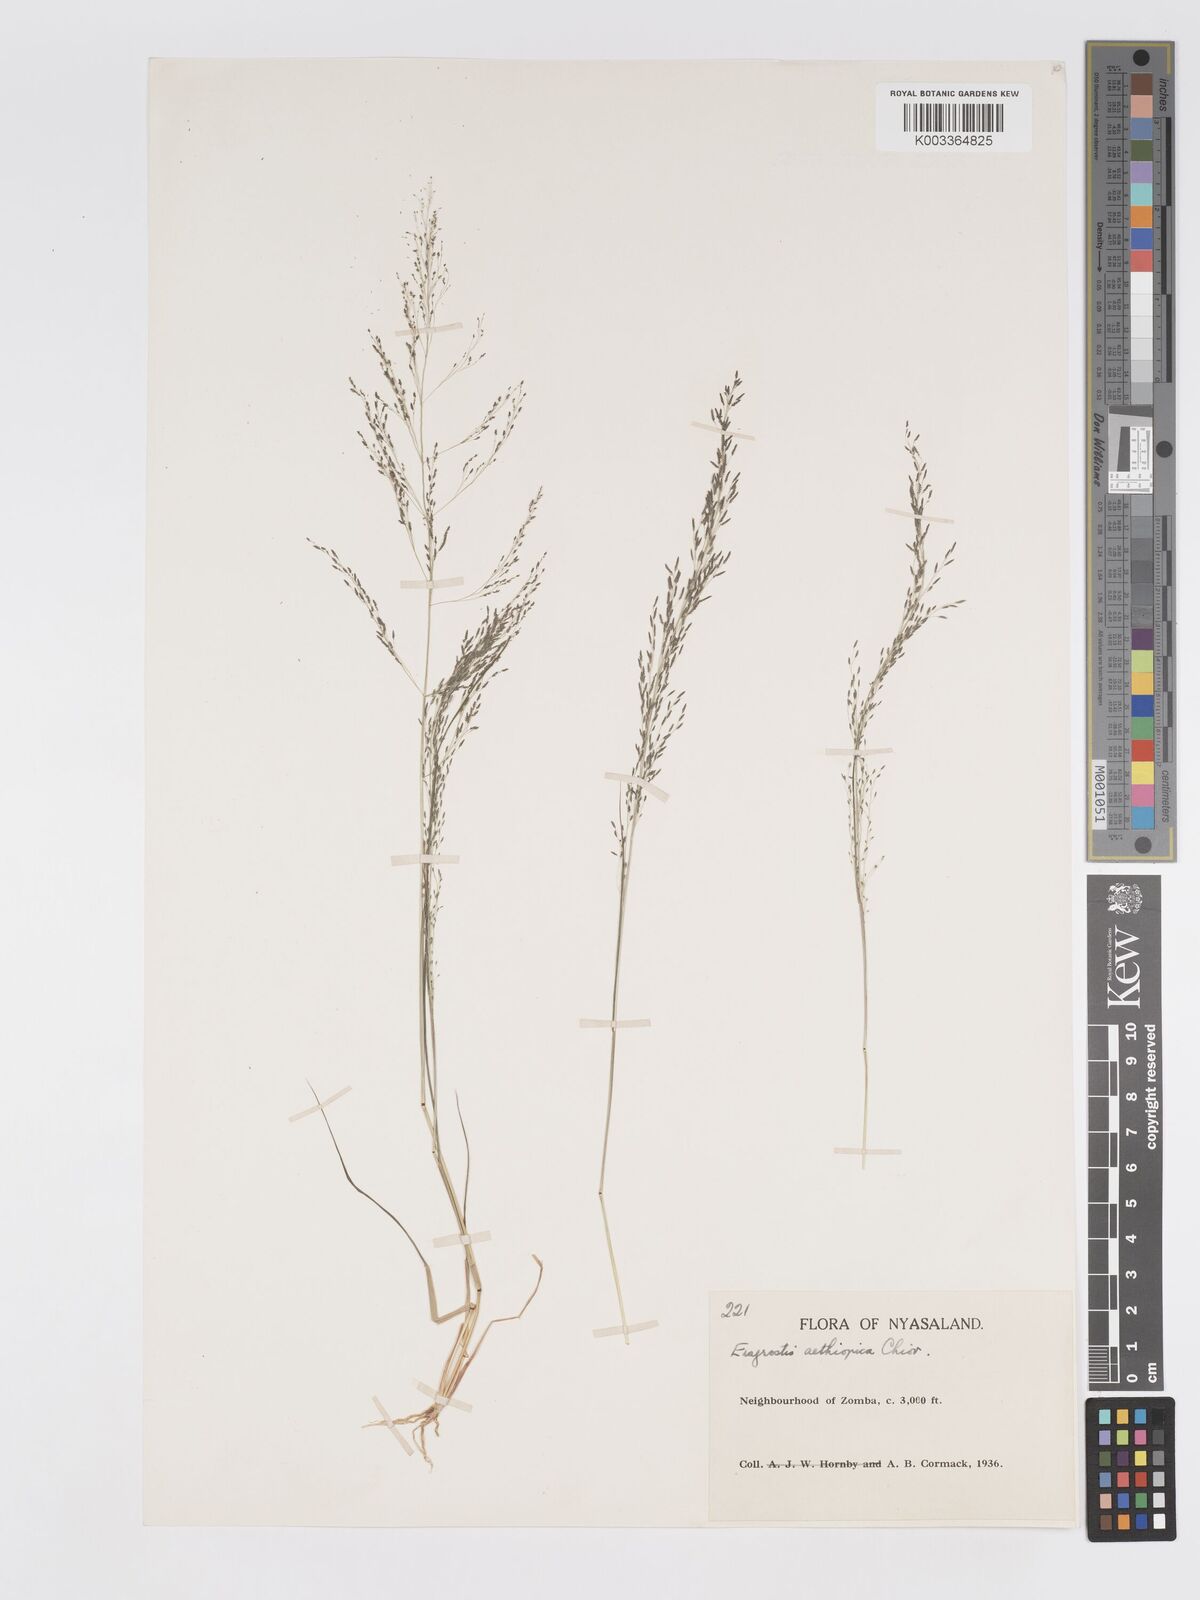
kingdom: Plantae
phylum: Tracheophyta
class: Liliopsida
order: Poales
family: Poaceae
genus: Eragrostis
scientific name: Eragrostis aethiopica
